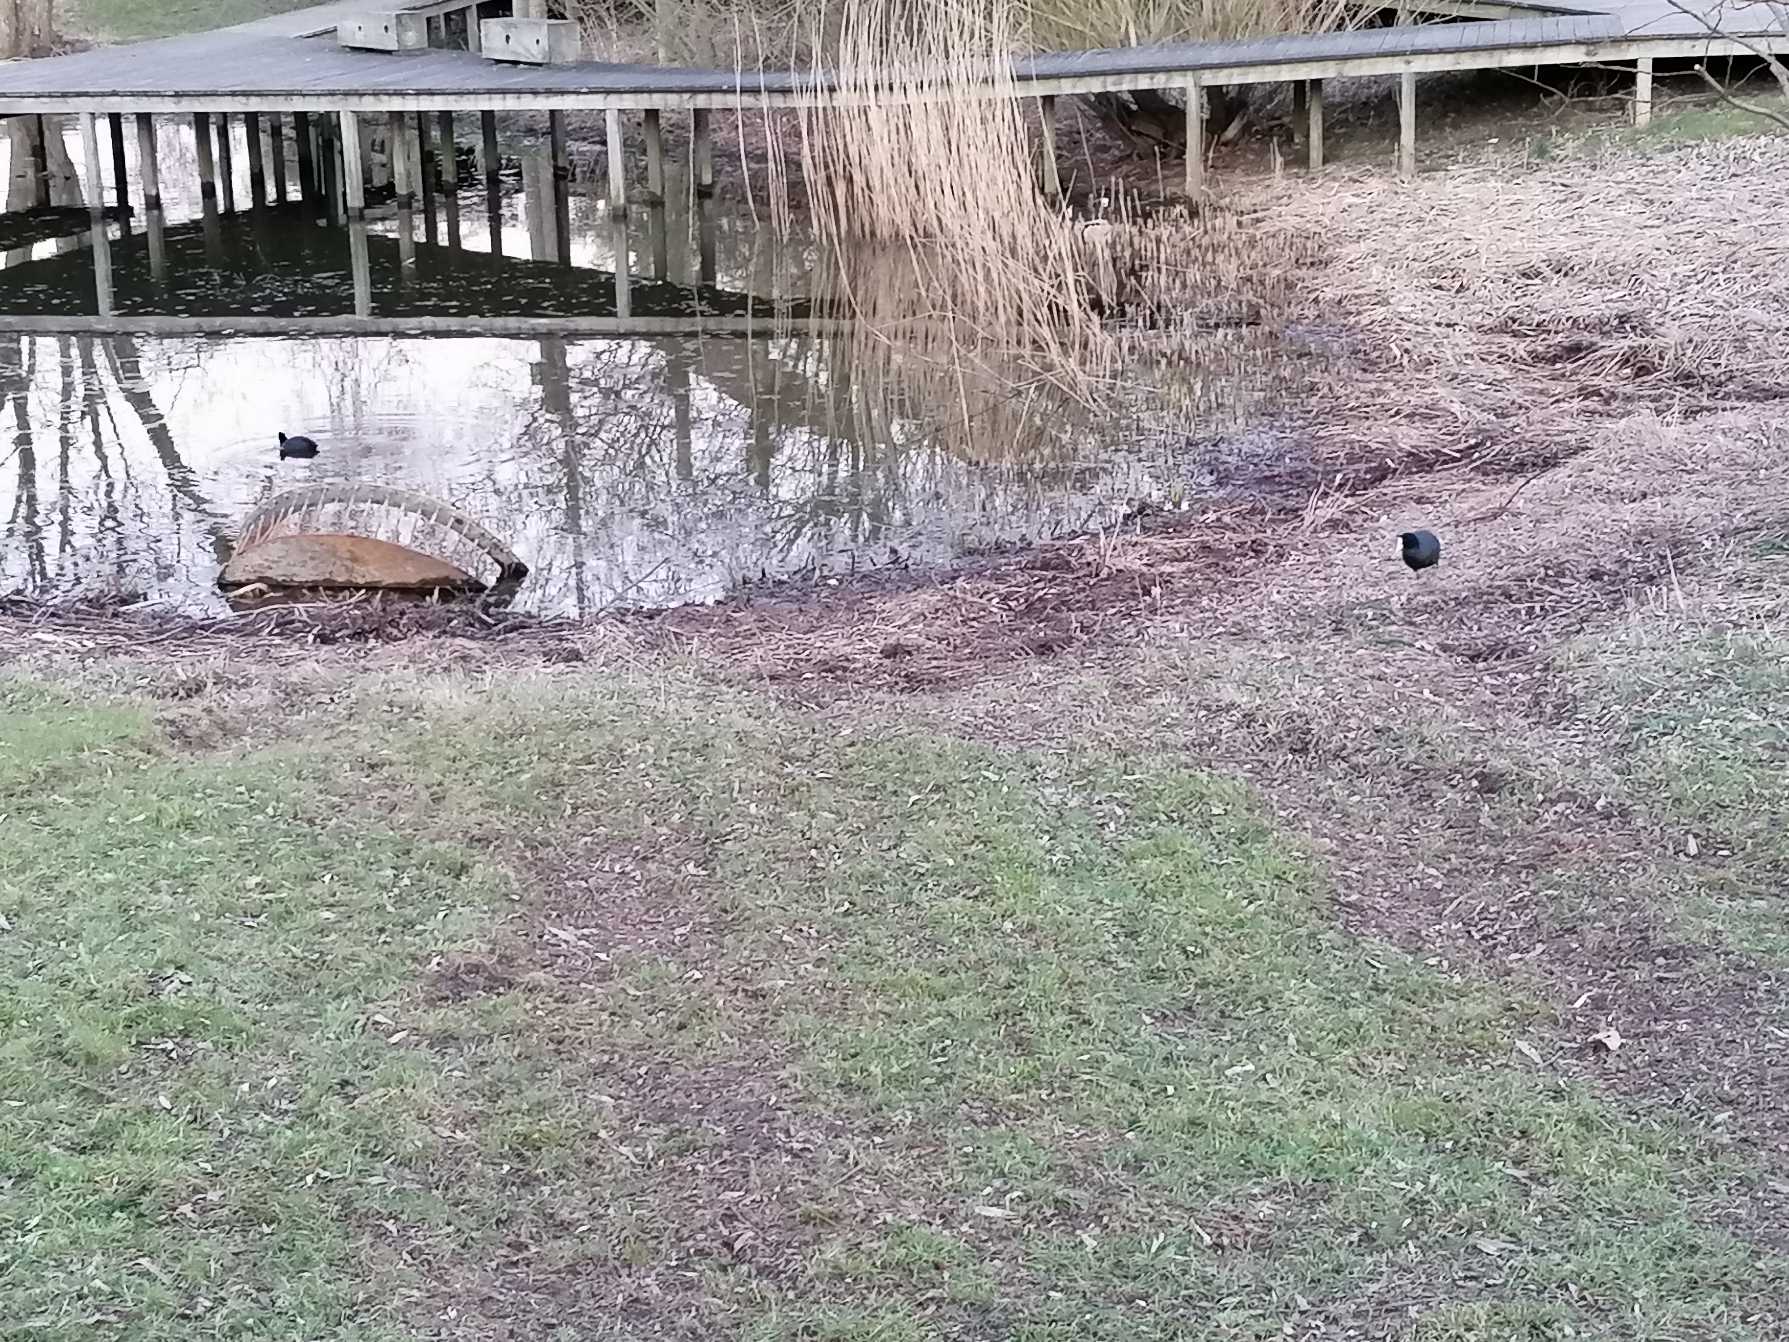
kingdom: Animalia
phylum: Chordata
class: Aves
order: Gruiformes
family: Rallidae
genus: Fulica
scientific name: Fulica atra
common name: Blishøne
